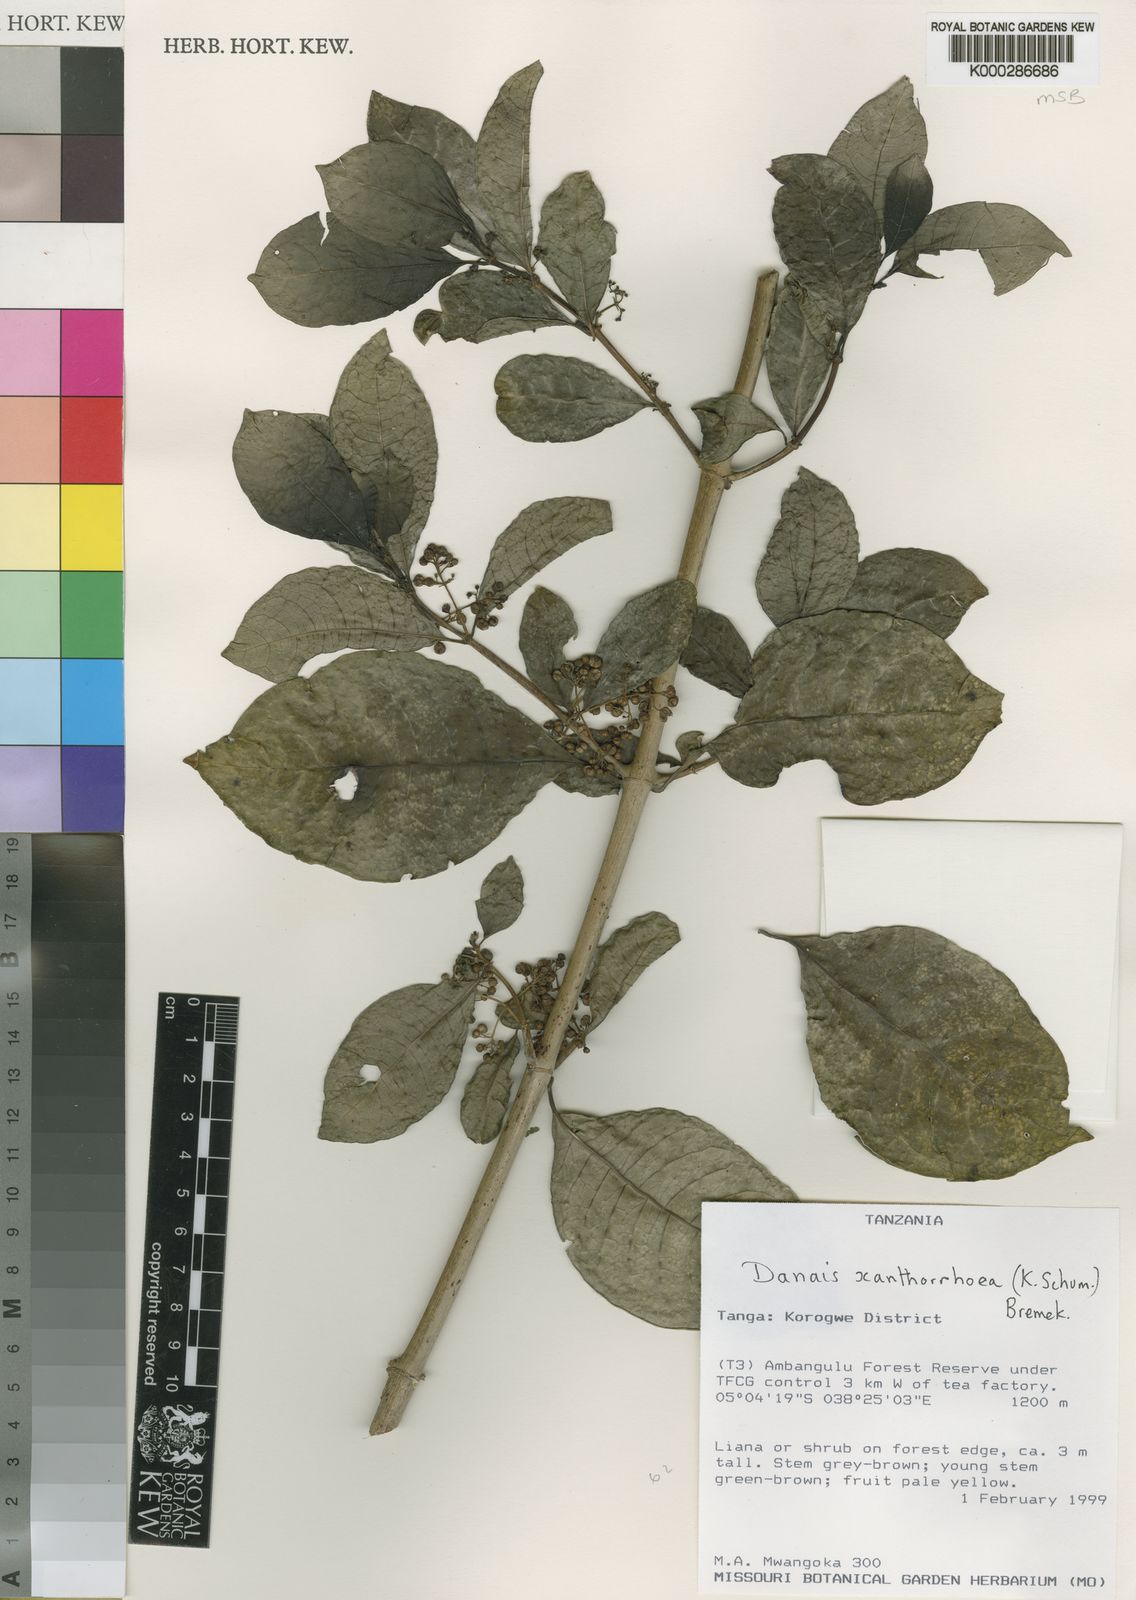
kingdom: Plantae
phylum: Tracheophyta
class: Magnoliopsida
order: Gentianales
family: Rubiaceae
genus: Danais
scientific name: Danais xanthorrhoea
